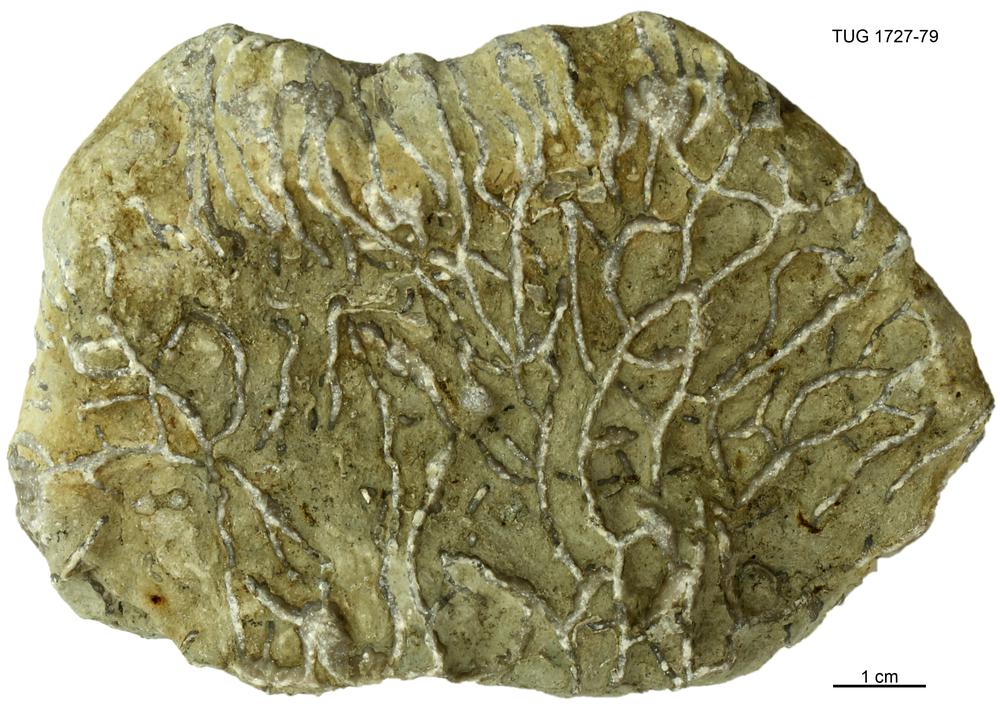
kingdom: Animalia
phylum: Cnidaria
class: Anthozoa
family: Cateniporidae
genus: Catenipora
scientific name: Catenipora
